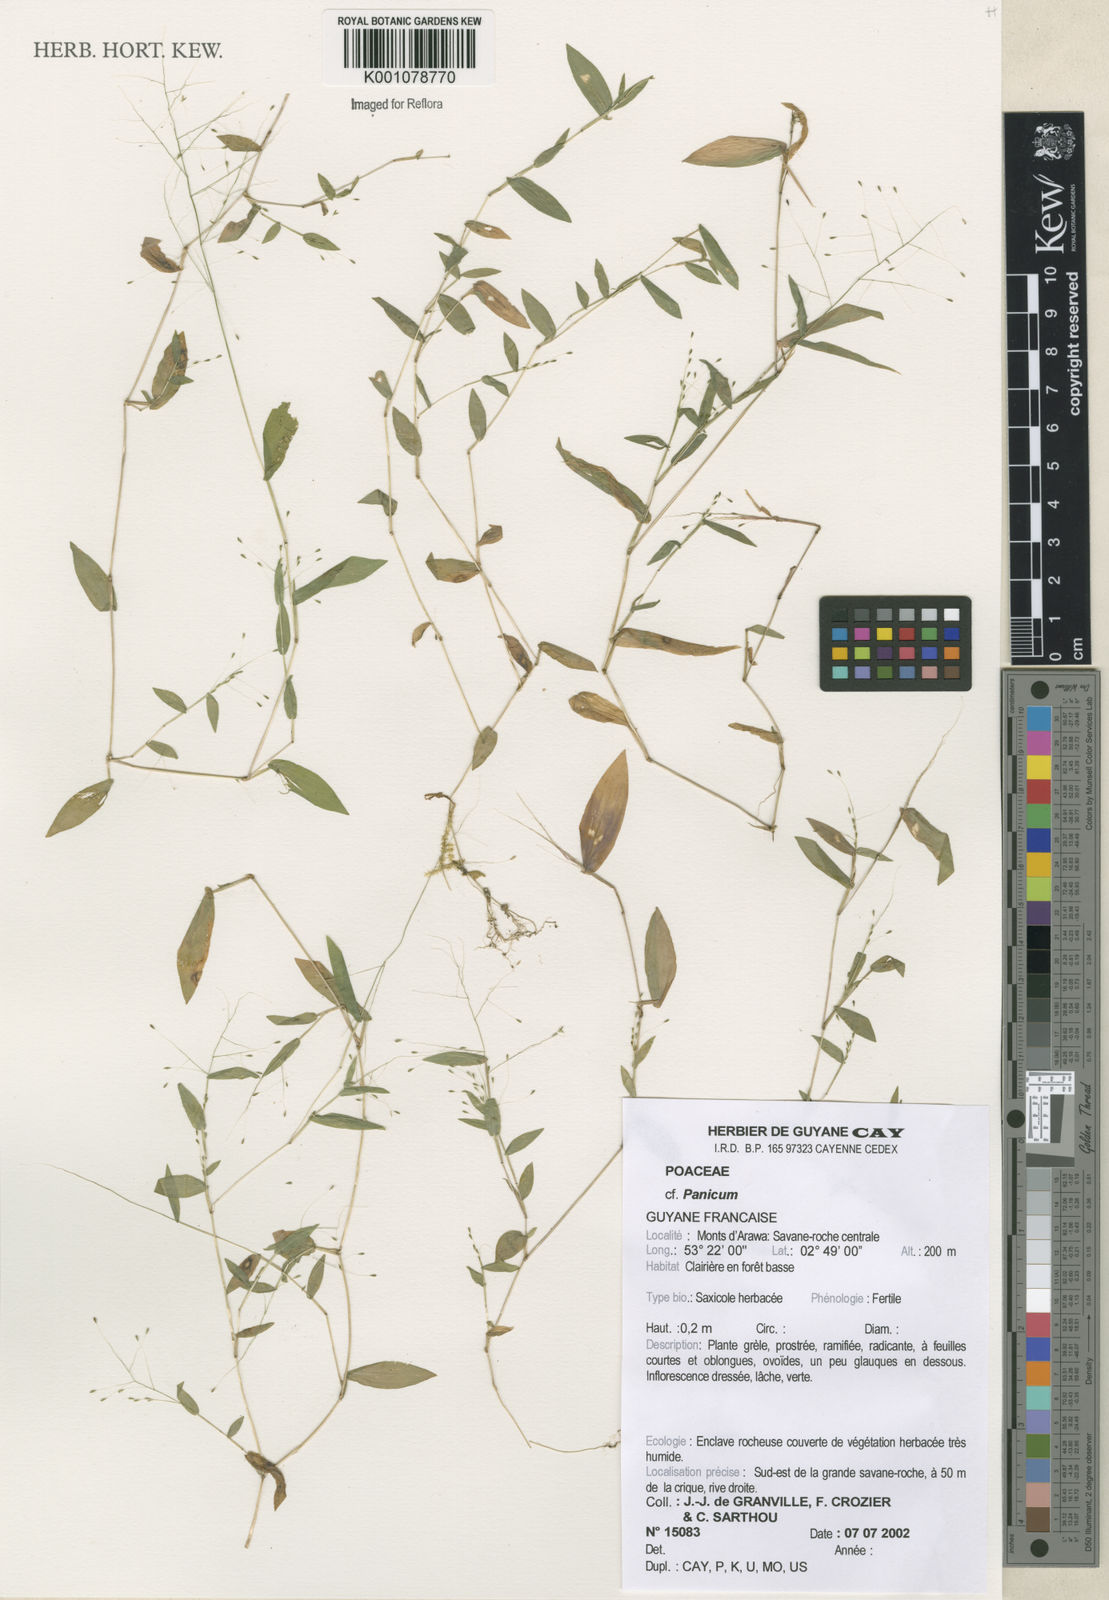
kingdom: Plantae
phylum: Tracheophyta
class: Liliopsida
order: Poales
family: Poaceae
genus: Panicum
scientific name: Panicum
